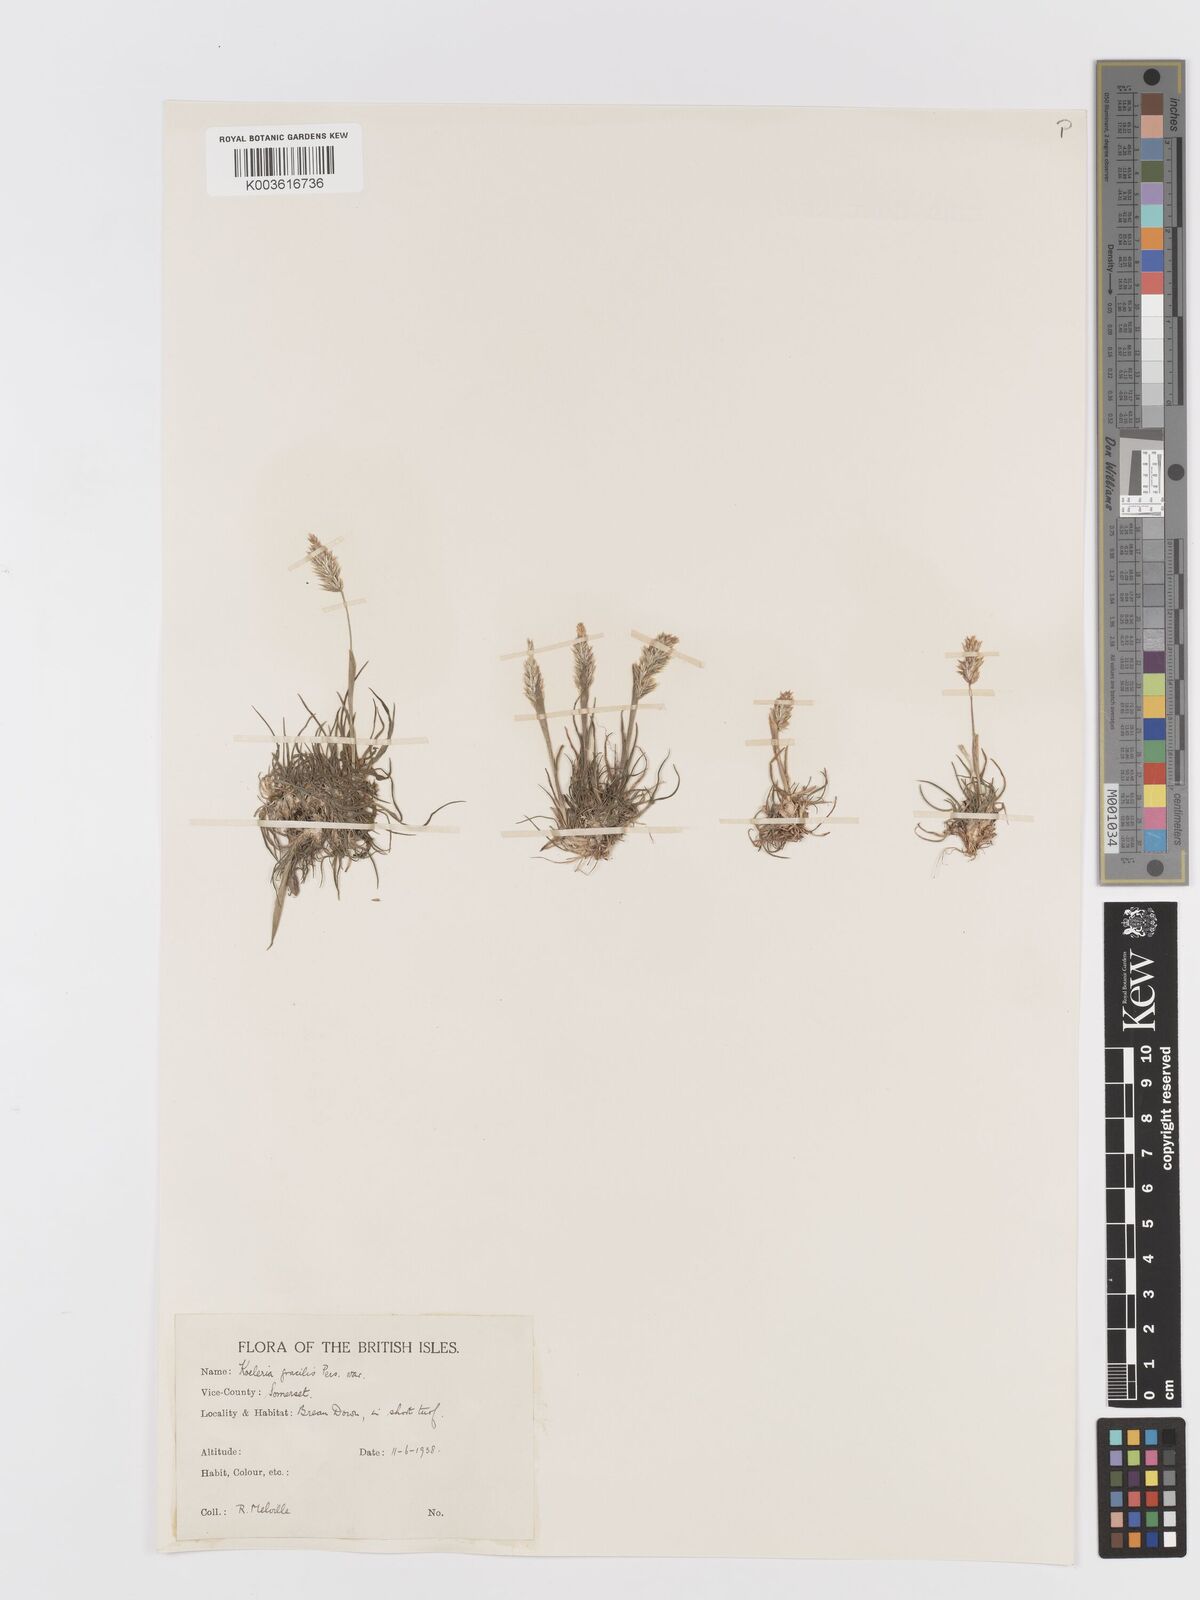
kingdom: Plantae
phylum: Tracheophyta
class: Liliopsida
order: Poales
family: Poaceae
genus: Koeleria
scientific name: Koeleria
